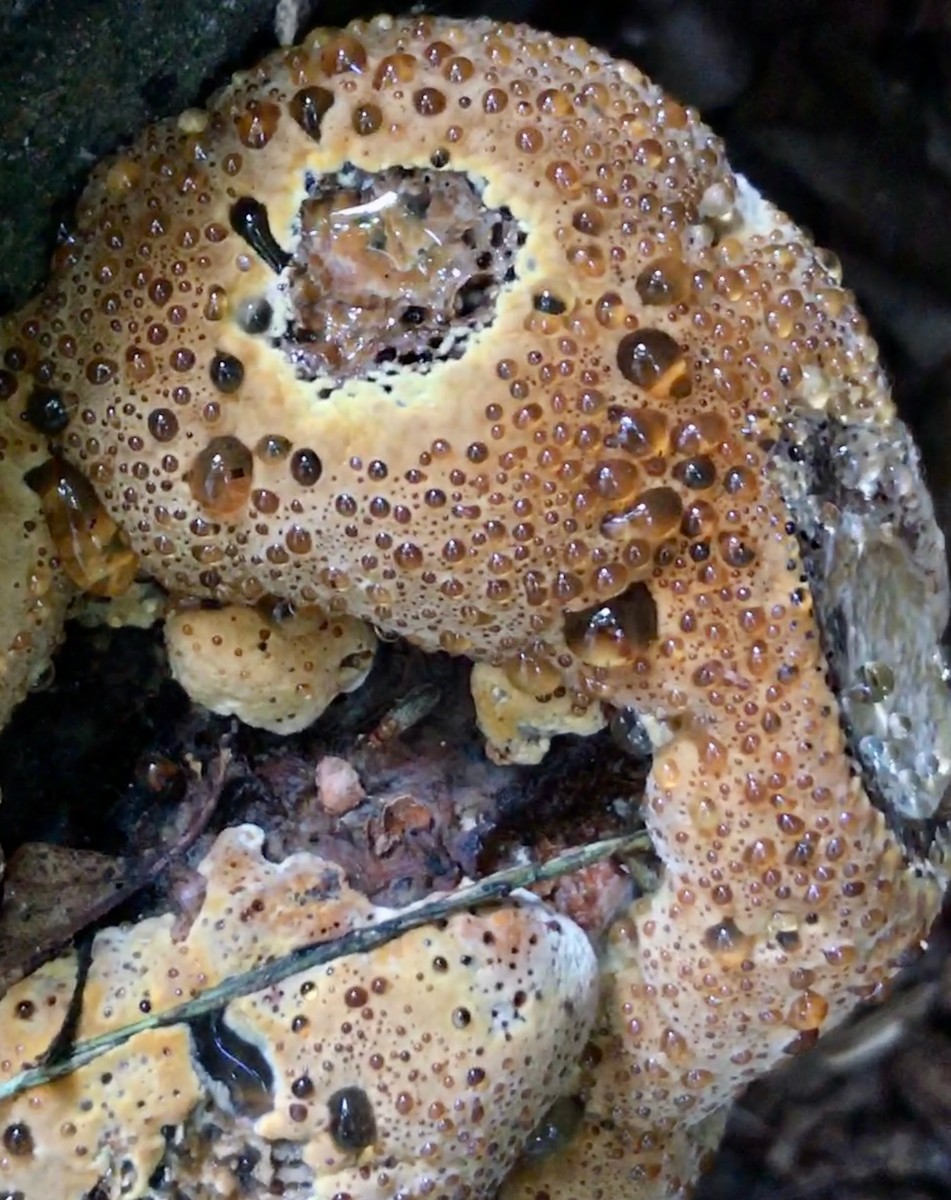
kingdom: Fungi
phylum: Basidiomycota
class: Agaricomycetes
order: Hymenochaetales
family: Hymenochaetaceae
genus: Pseudoinonotus
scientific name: Pseudoinonotus dryadeus
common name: ege-spejlporesvamp
